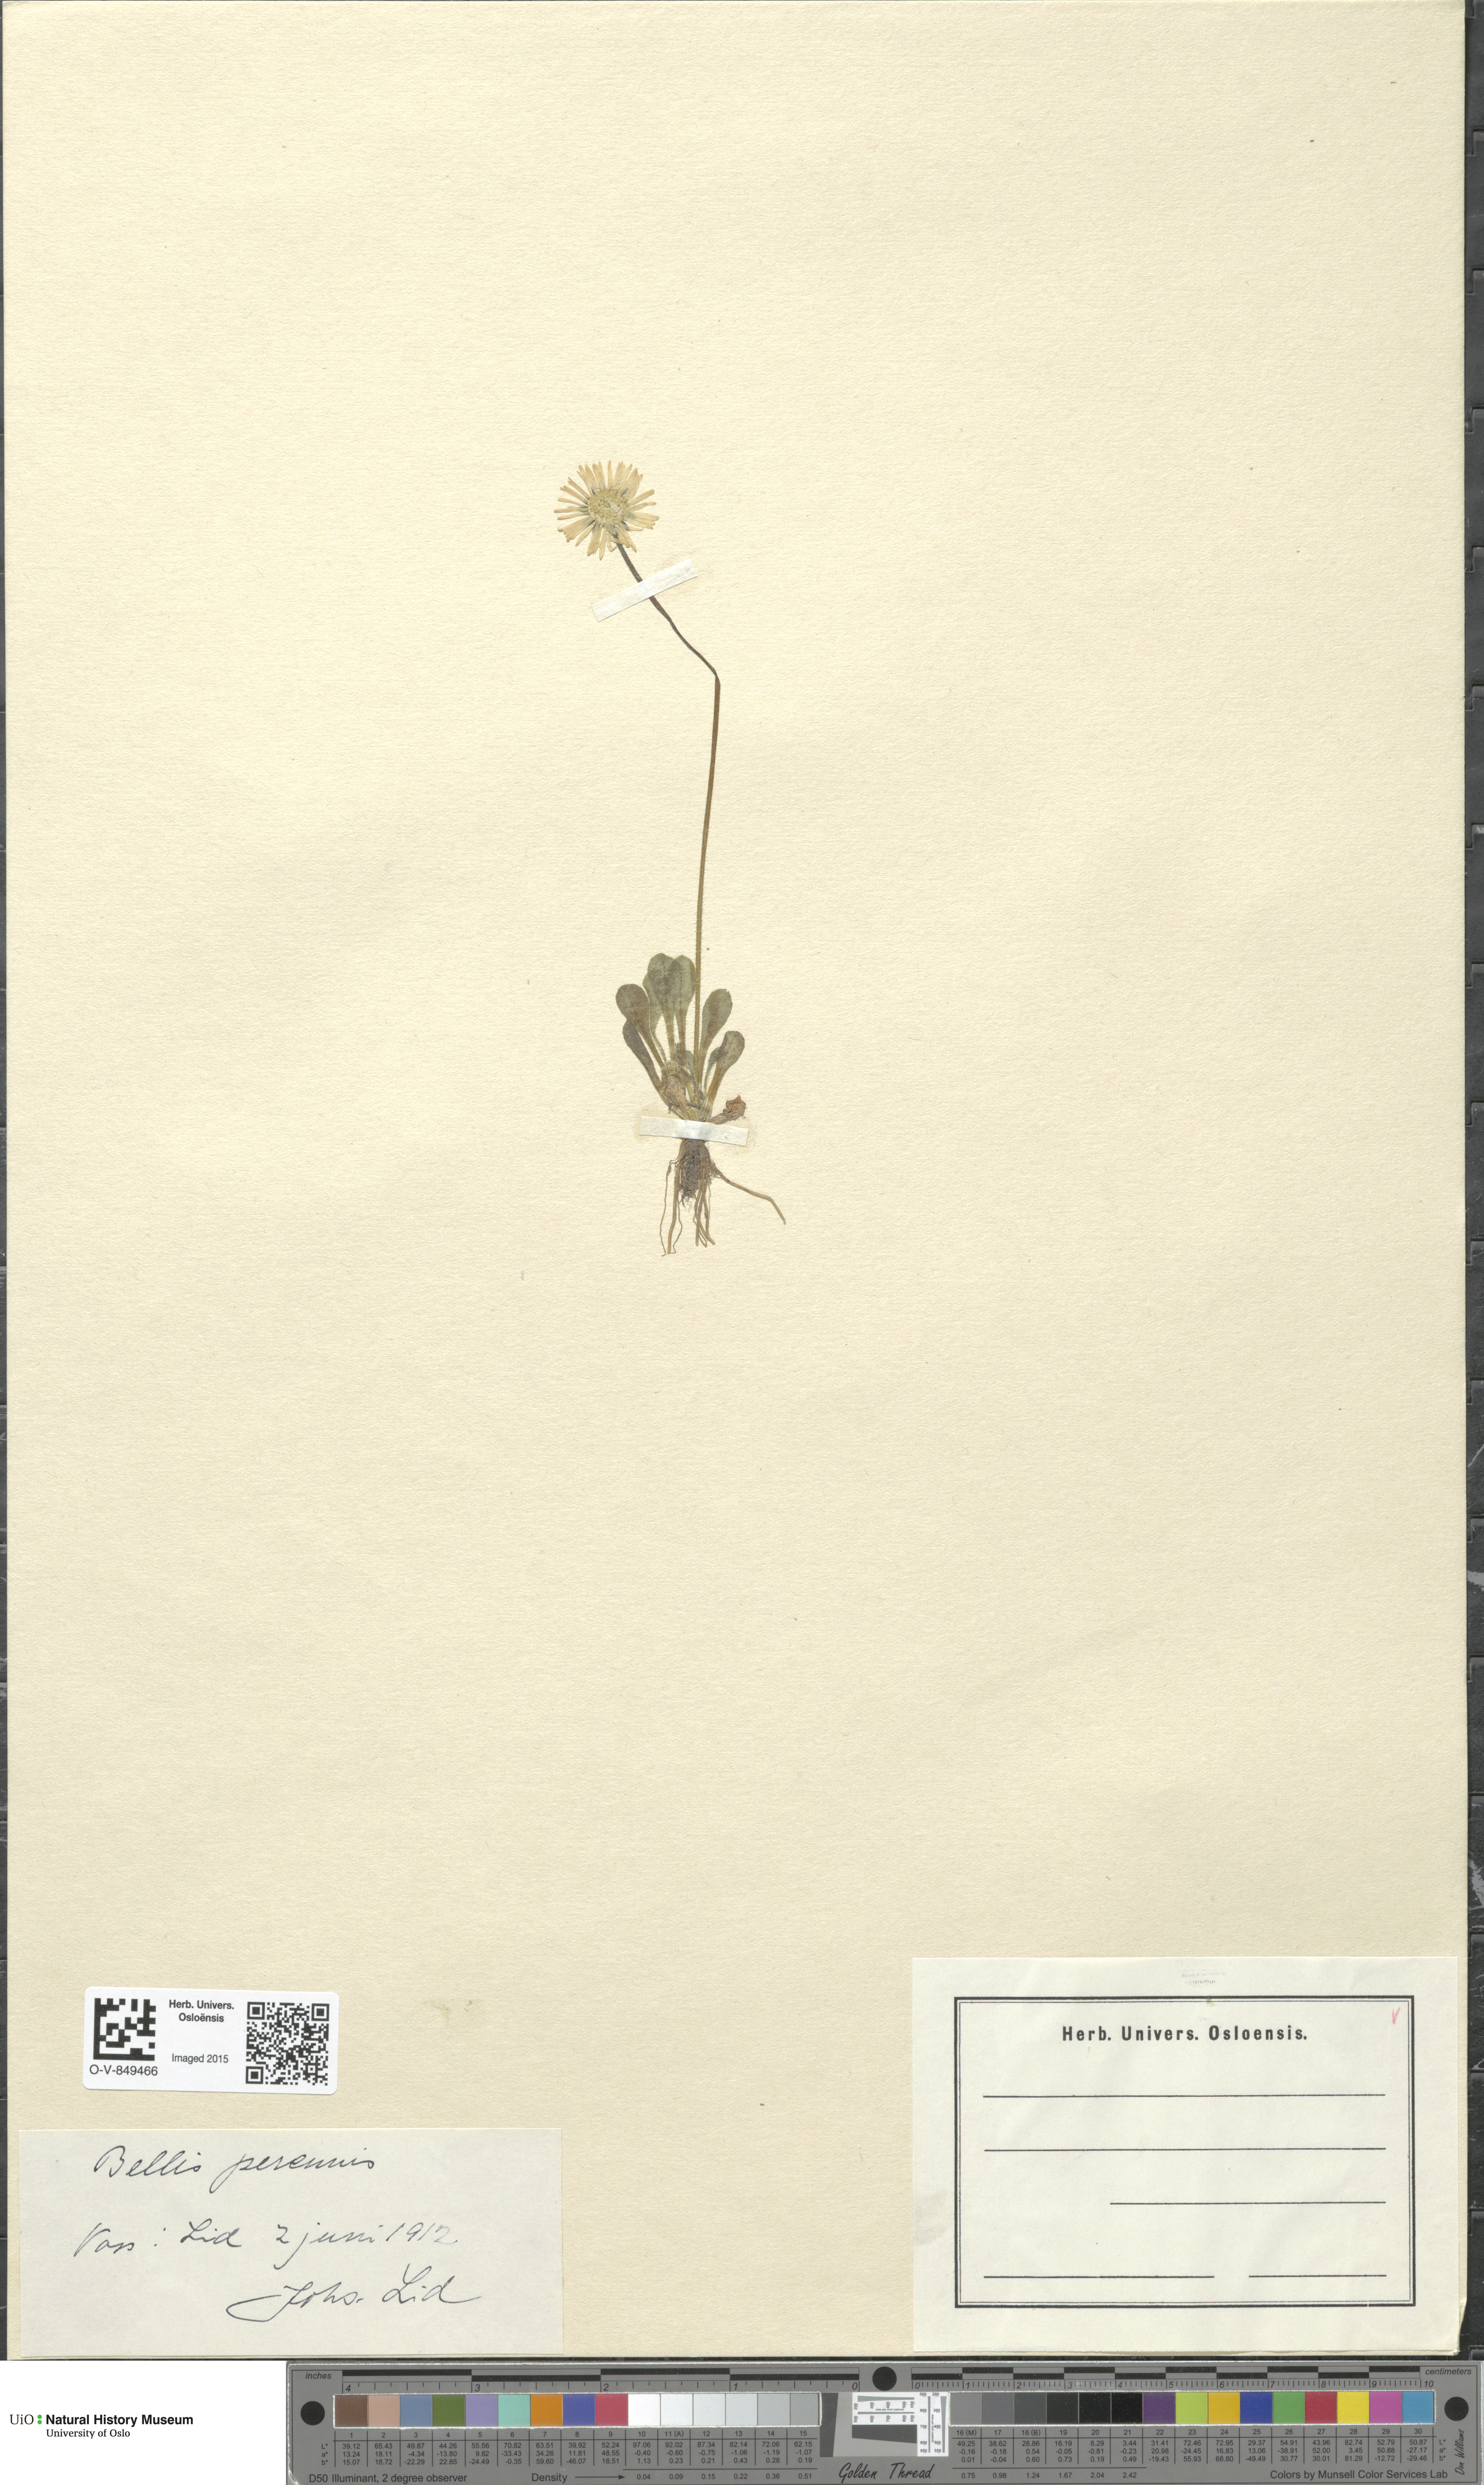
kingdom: Plantae
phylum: Tracheophyta
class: Magnoliopsida
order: Asterales
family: Asteraceae
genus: Bellis
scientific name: Bellis perennis
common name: Lawndaisy
